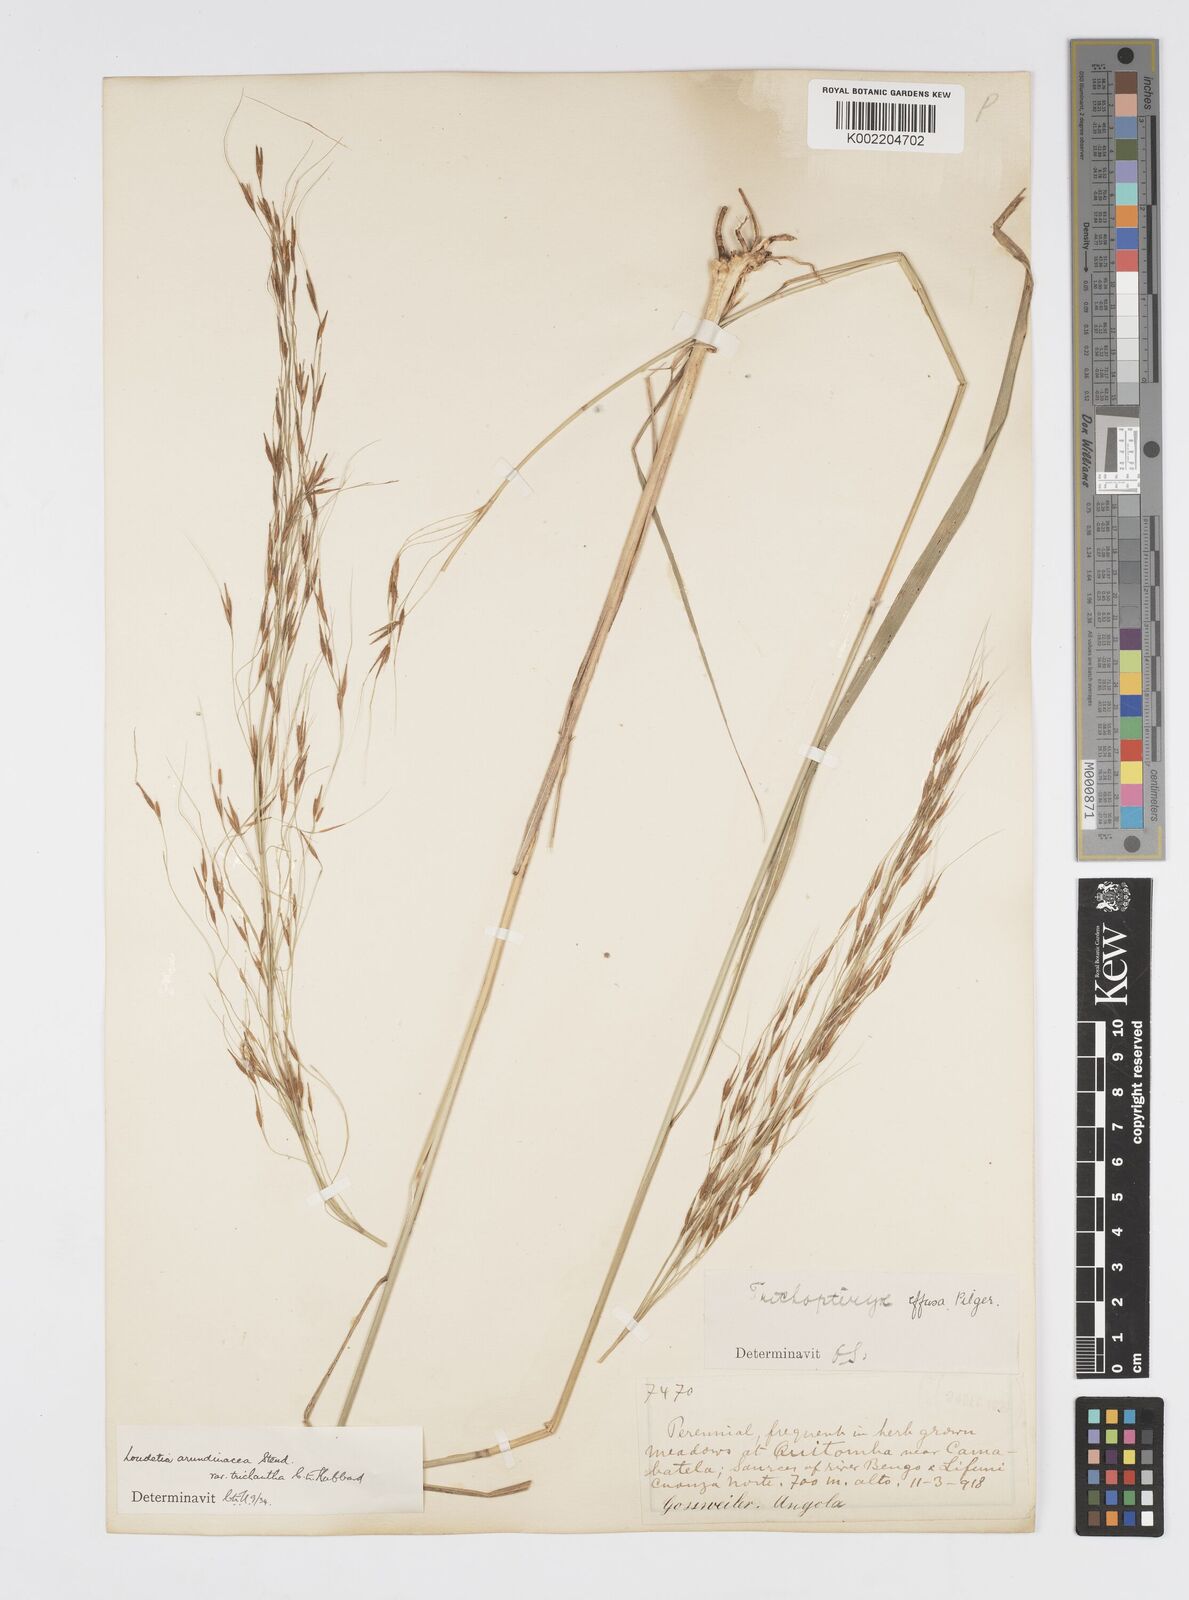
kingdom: Plantae
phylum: Tracheophyta
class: Liliopsida
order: Poales
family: Poaceae
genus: Loudetia
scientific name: Loudetia arundinacea
